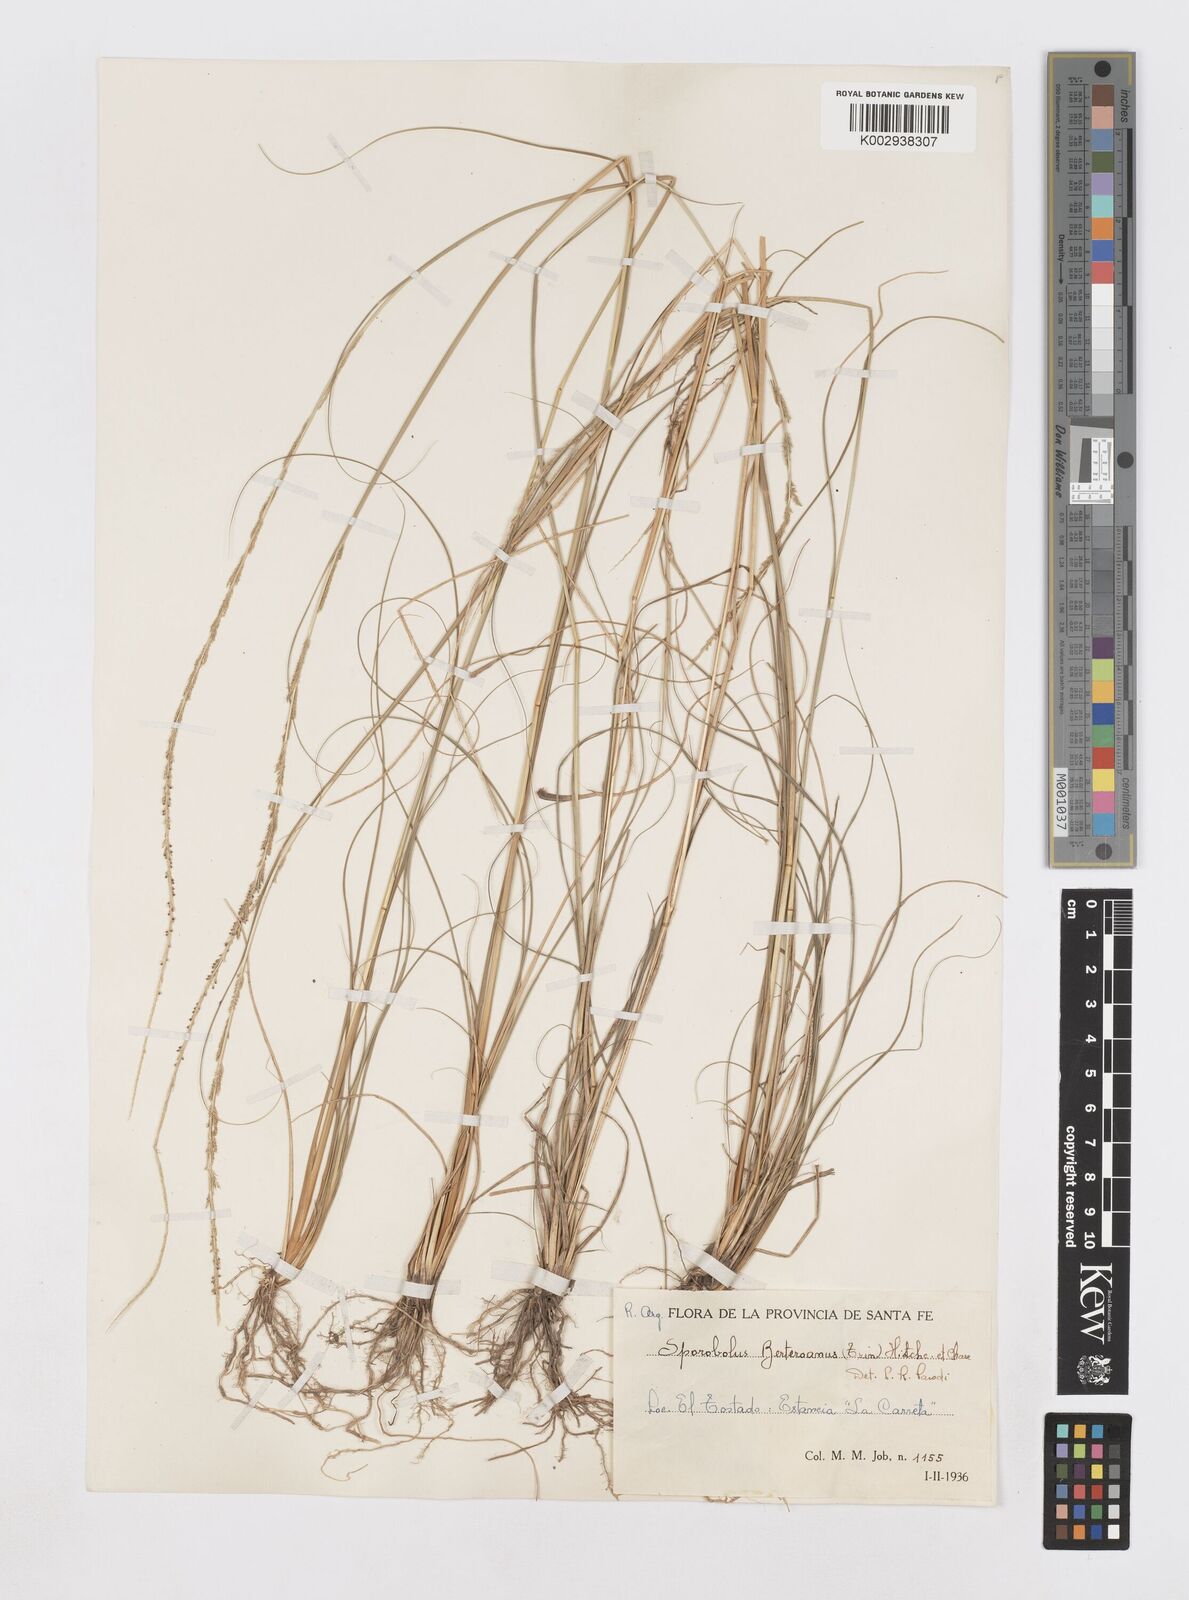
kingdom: Plantae
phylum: Tracheophyta
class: Liliopsida
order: Poales
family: Poaceae
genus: Sporobolus
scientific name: Sporobolus indicus
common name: Smut grass
